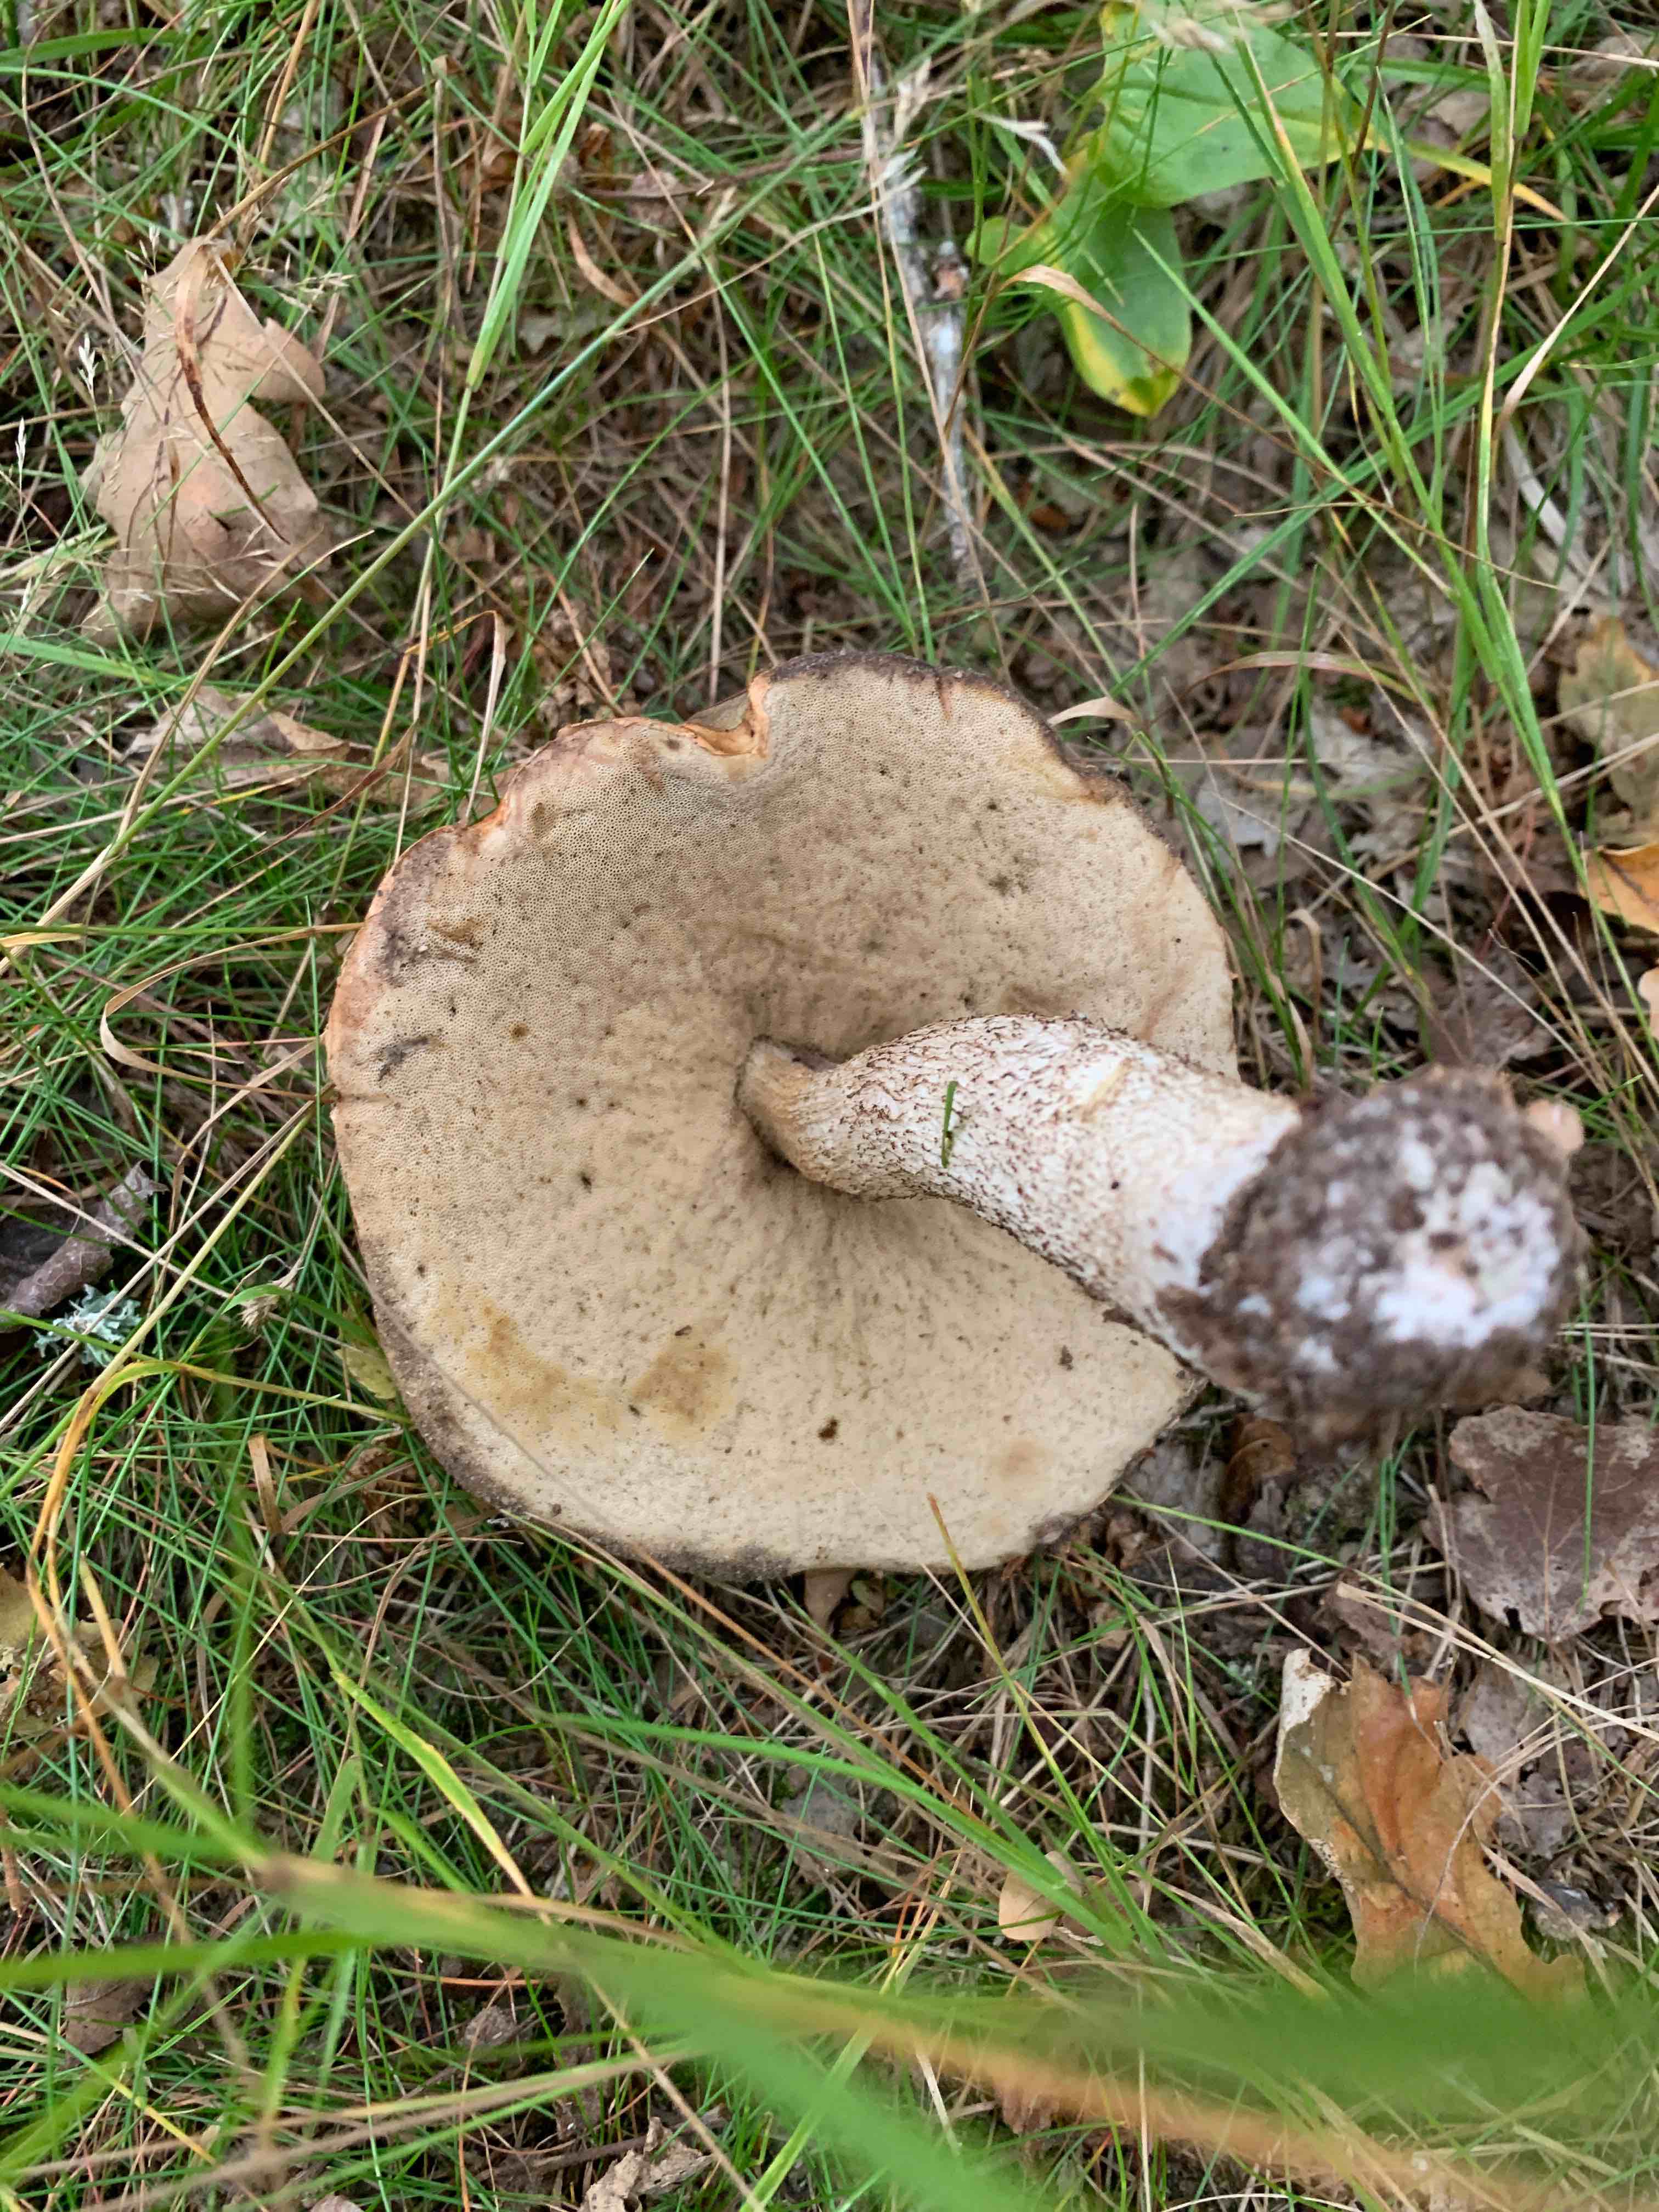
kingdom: Fungi
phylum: Basidiomycota
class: Agaricomycetes
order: Boletales
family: Boletaceae
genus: Leccinum
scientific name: Leccinum aurantiacum
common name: rustrød skælrørhat
